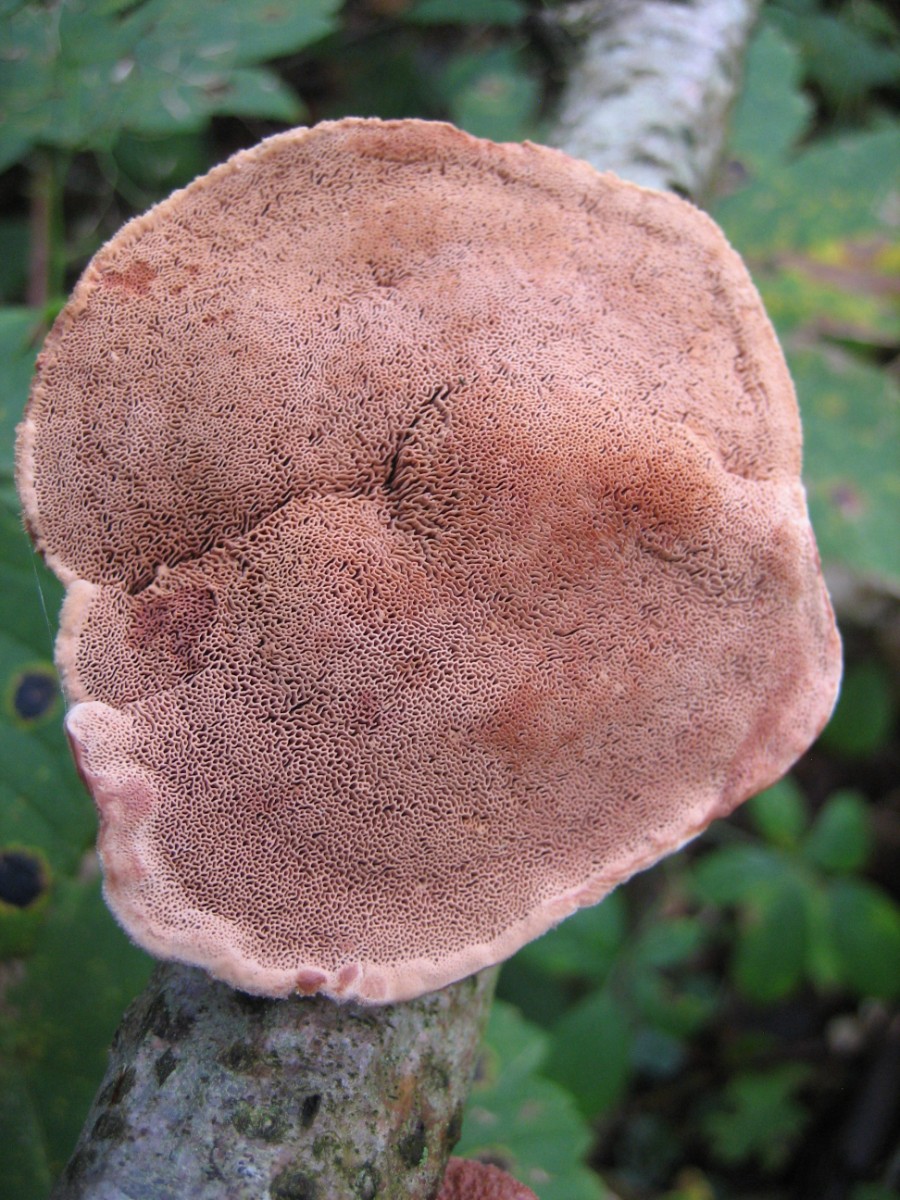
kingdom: Fungi
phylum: Basidiomycota
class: Agaricomycetes
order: Polyporales
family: Phanerochaetaceae
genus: Hapalopilus
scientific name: Hapalopilus rutilans
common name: rødlig okkerporesvamp
